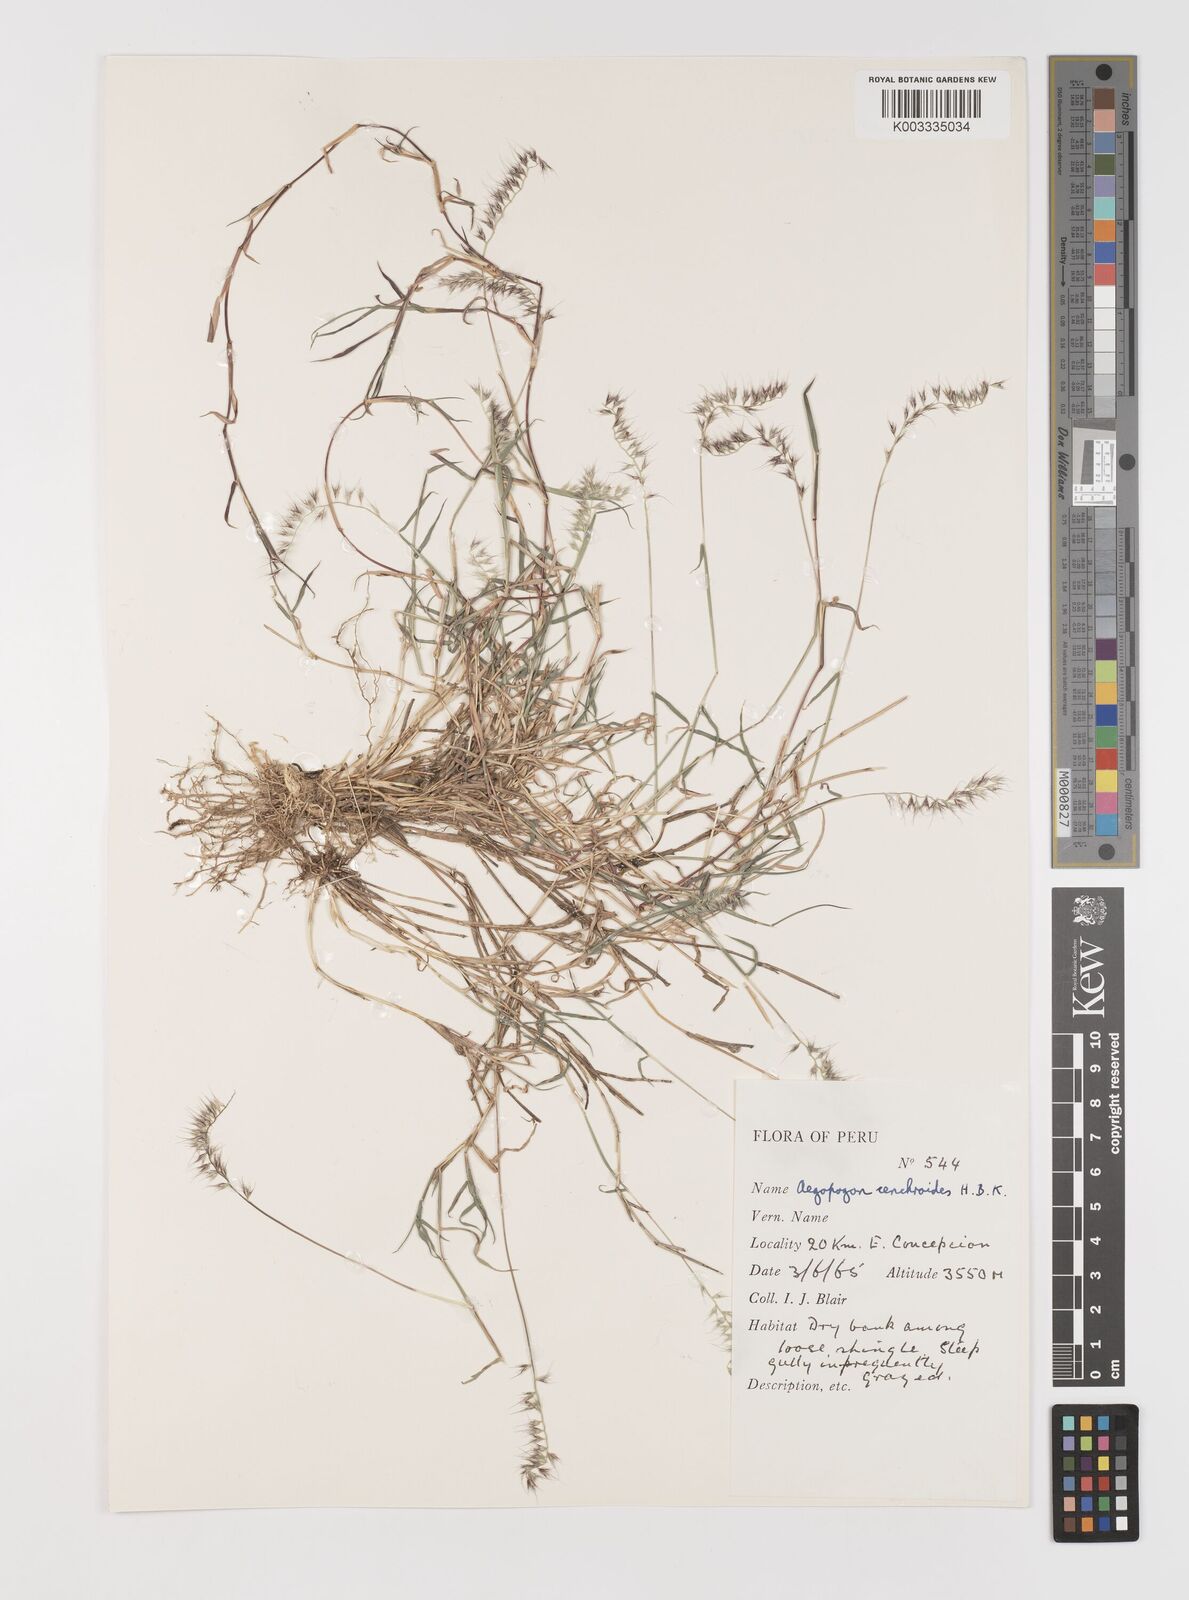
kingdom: Plantae
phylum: Tracheophyta
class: Liliopsida
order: Poales
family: Poaceae
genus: Muhlenbergia
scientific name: Muhlenbergia cenchroides
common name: Relaxgrass
